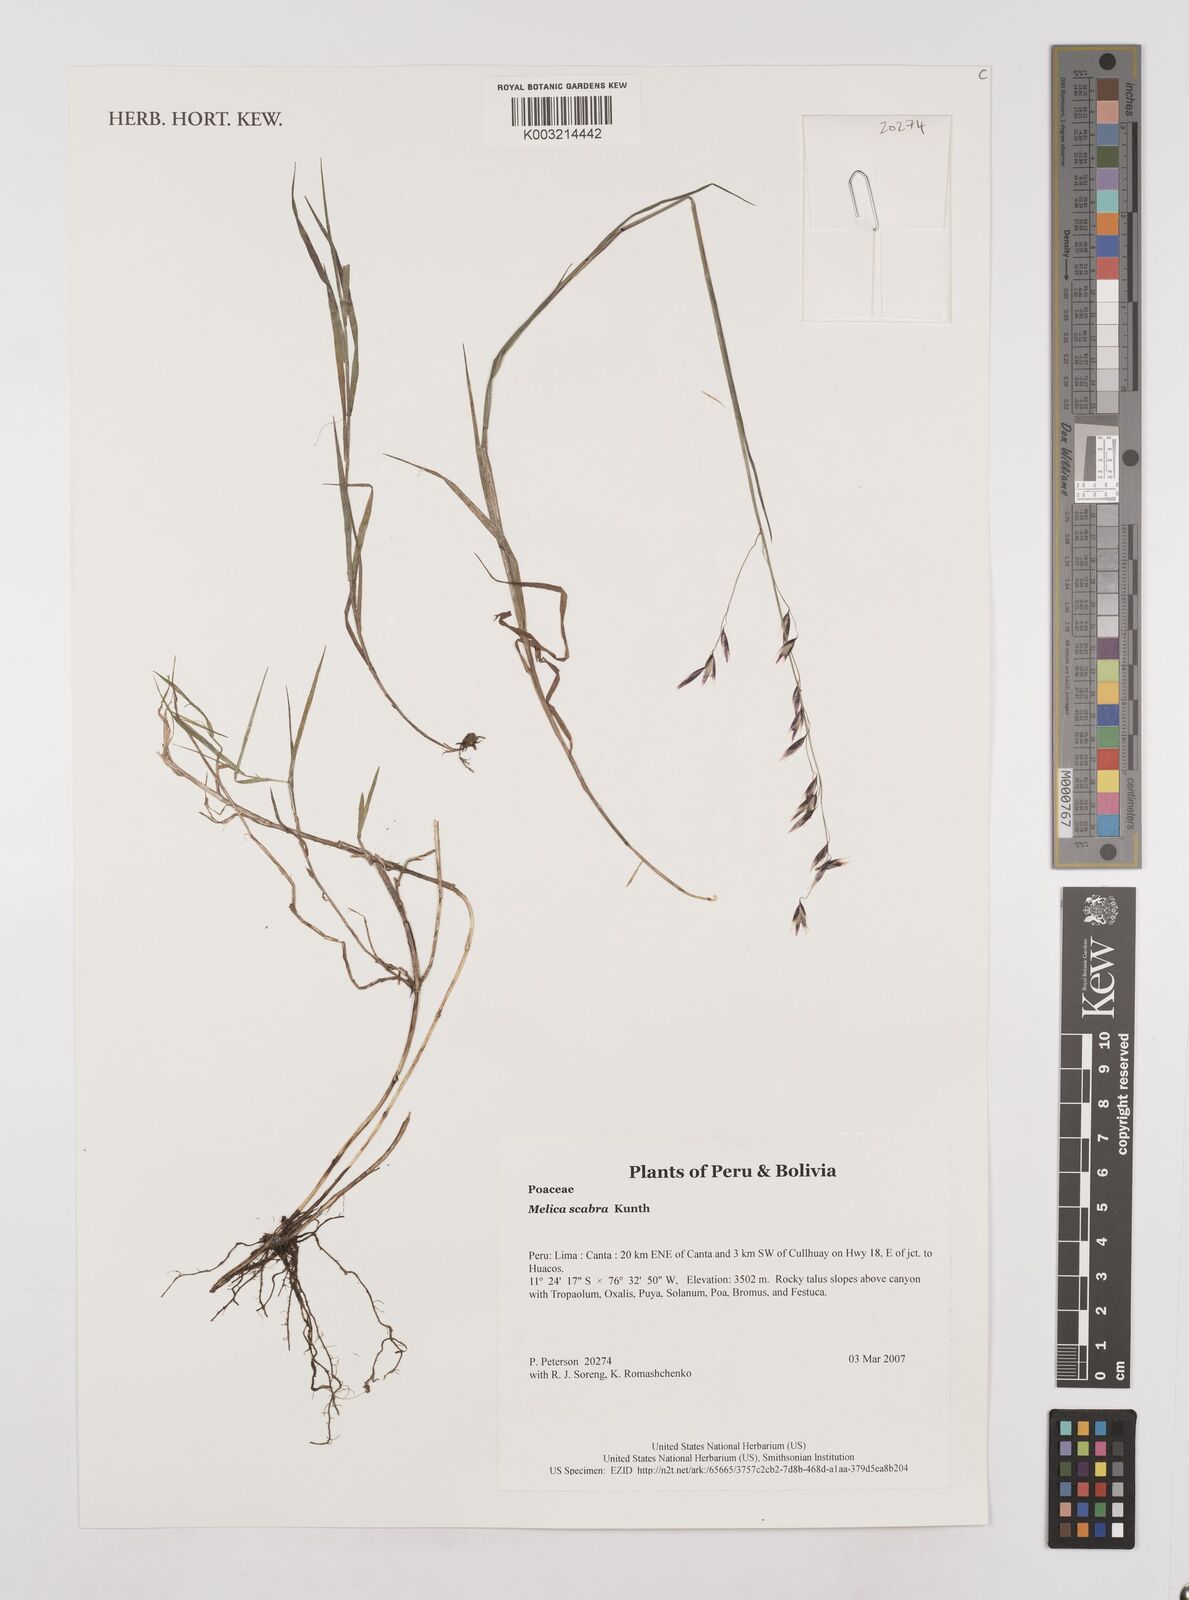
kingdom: Plantae
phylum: Tracheophyta
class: Liliopsida
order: Poales
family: Poaceae
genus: Melica
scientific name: Melica scabra
